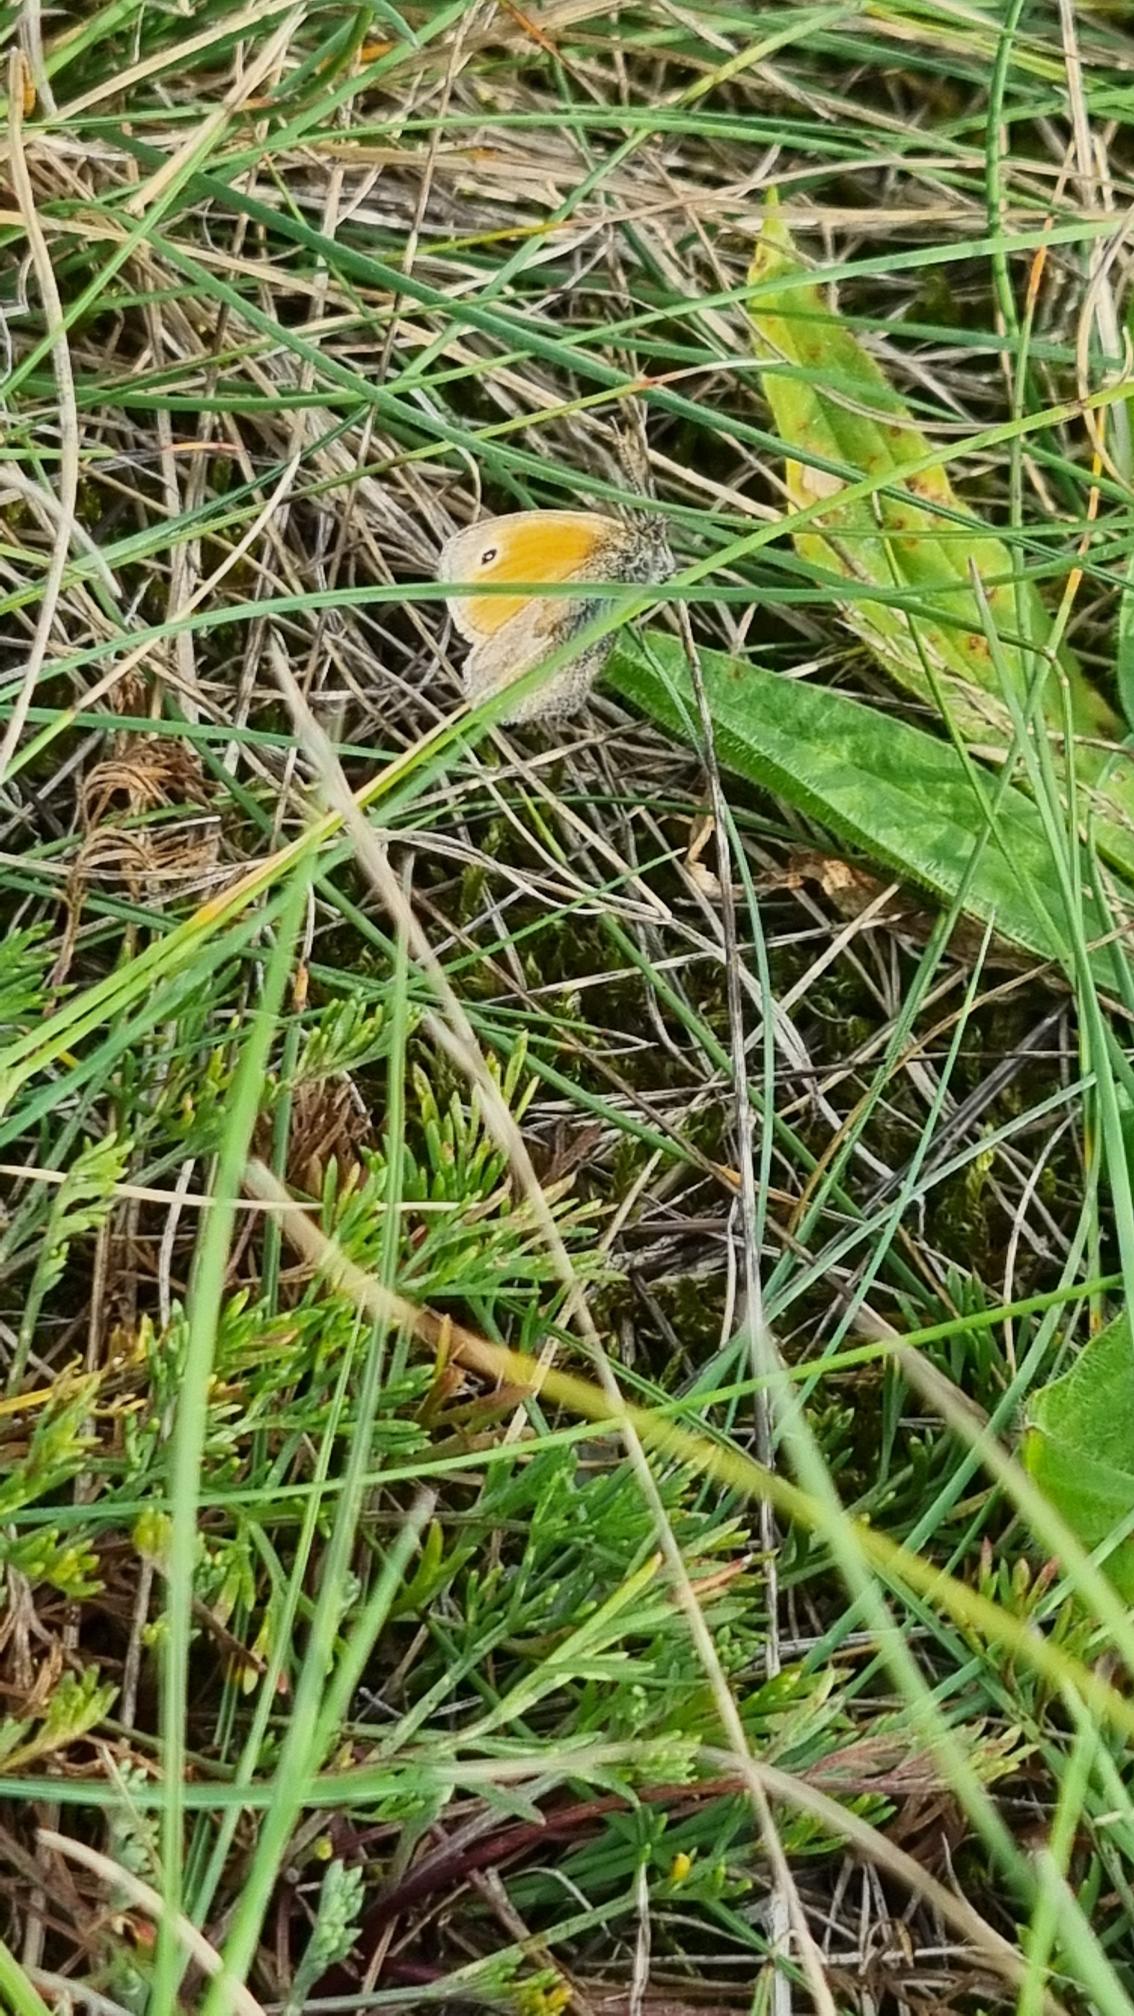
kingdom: Animalia
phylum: Arthropoda
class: Insecta
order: Lepidoptera
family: Nymphalidae
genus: Coenonympha
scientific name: Coenonympha pamphilus
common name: Okkergul randøje
